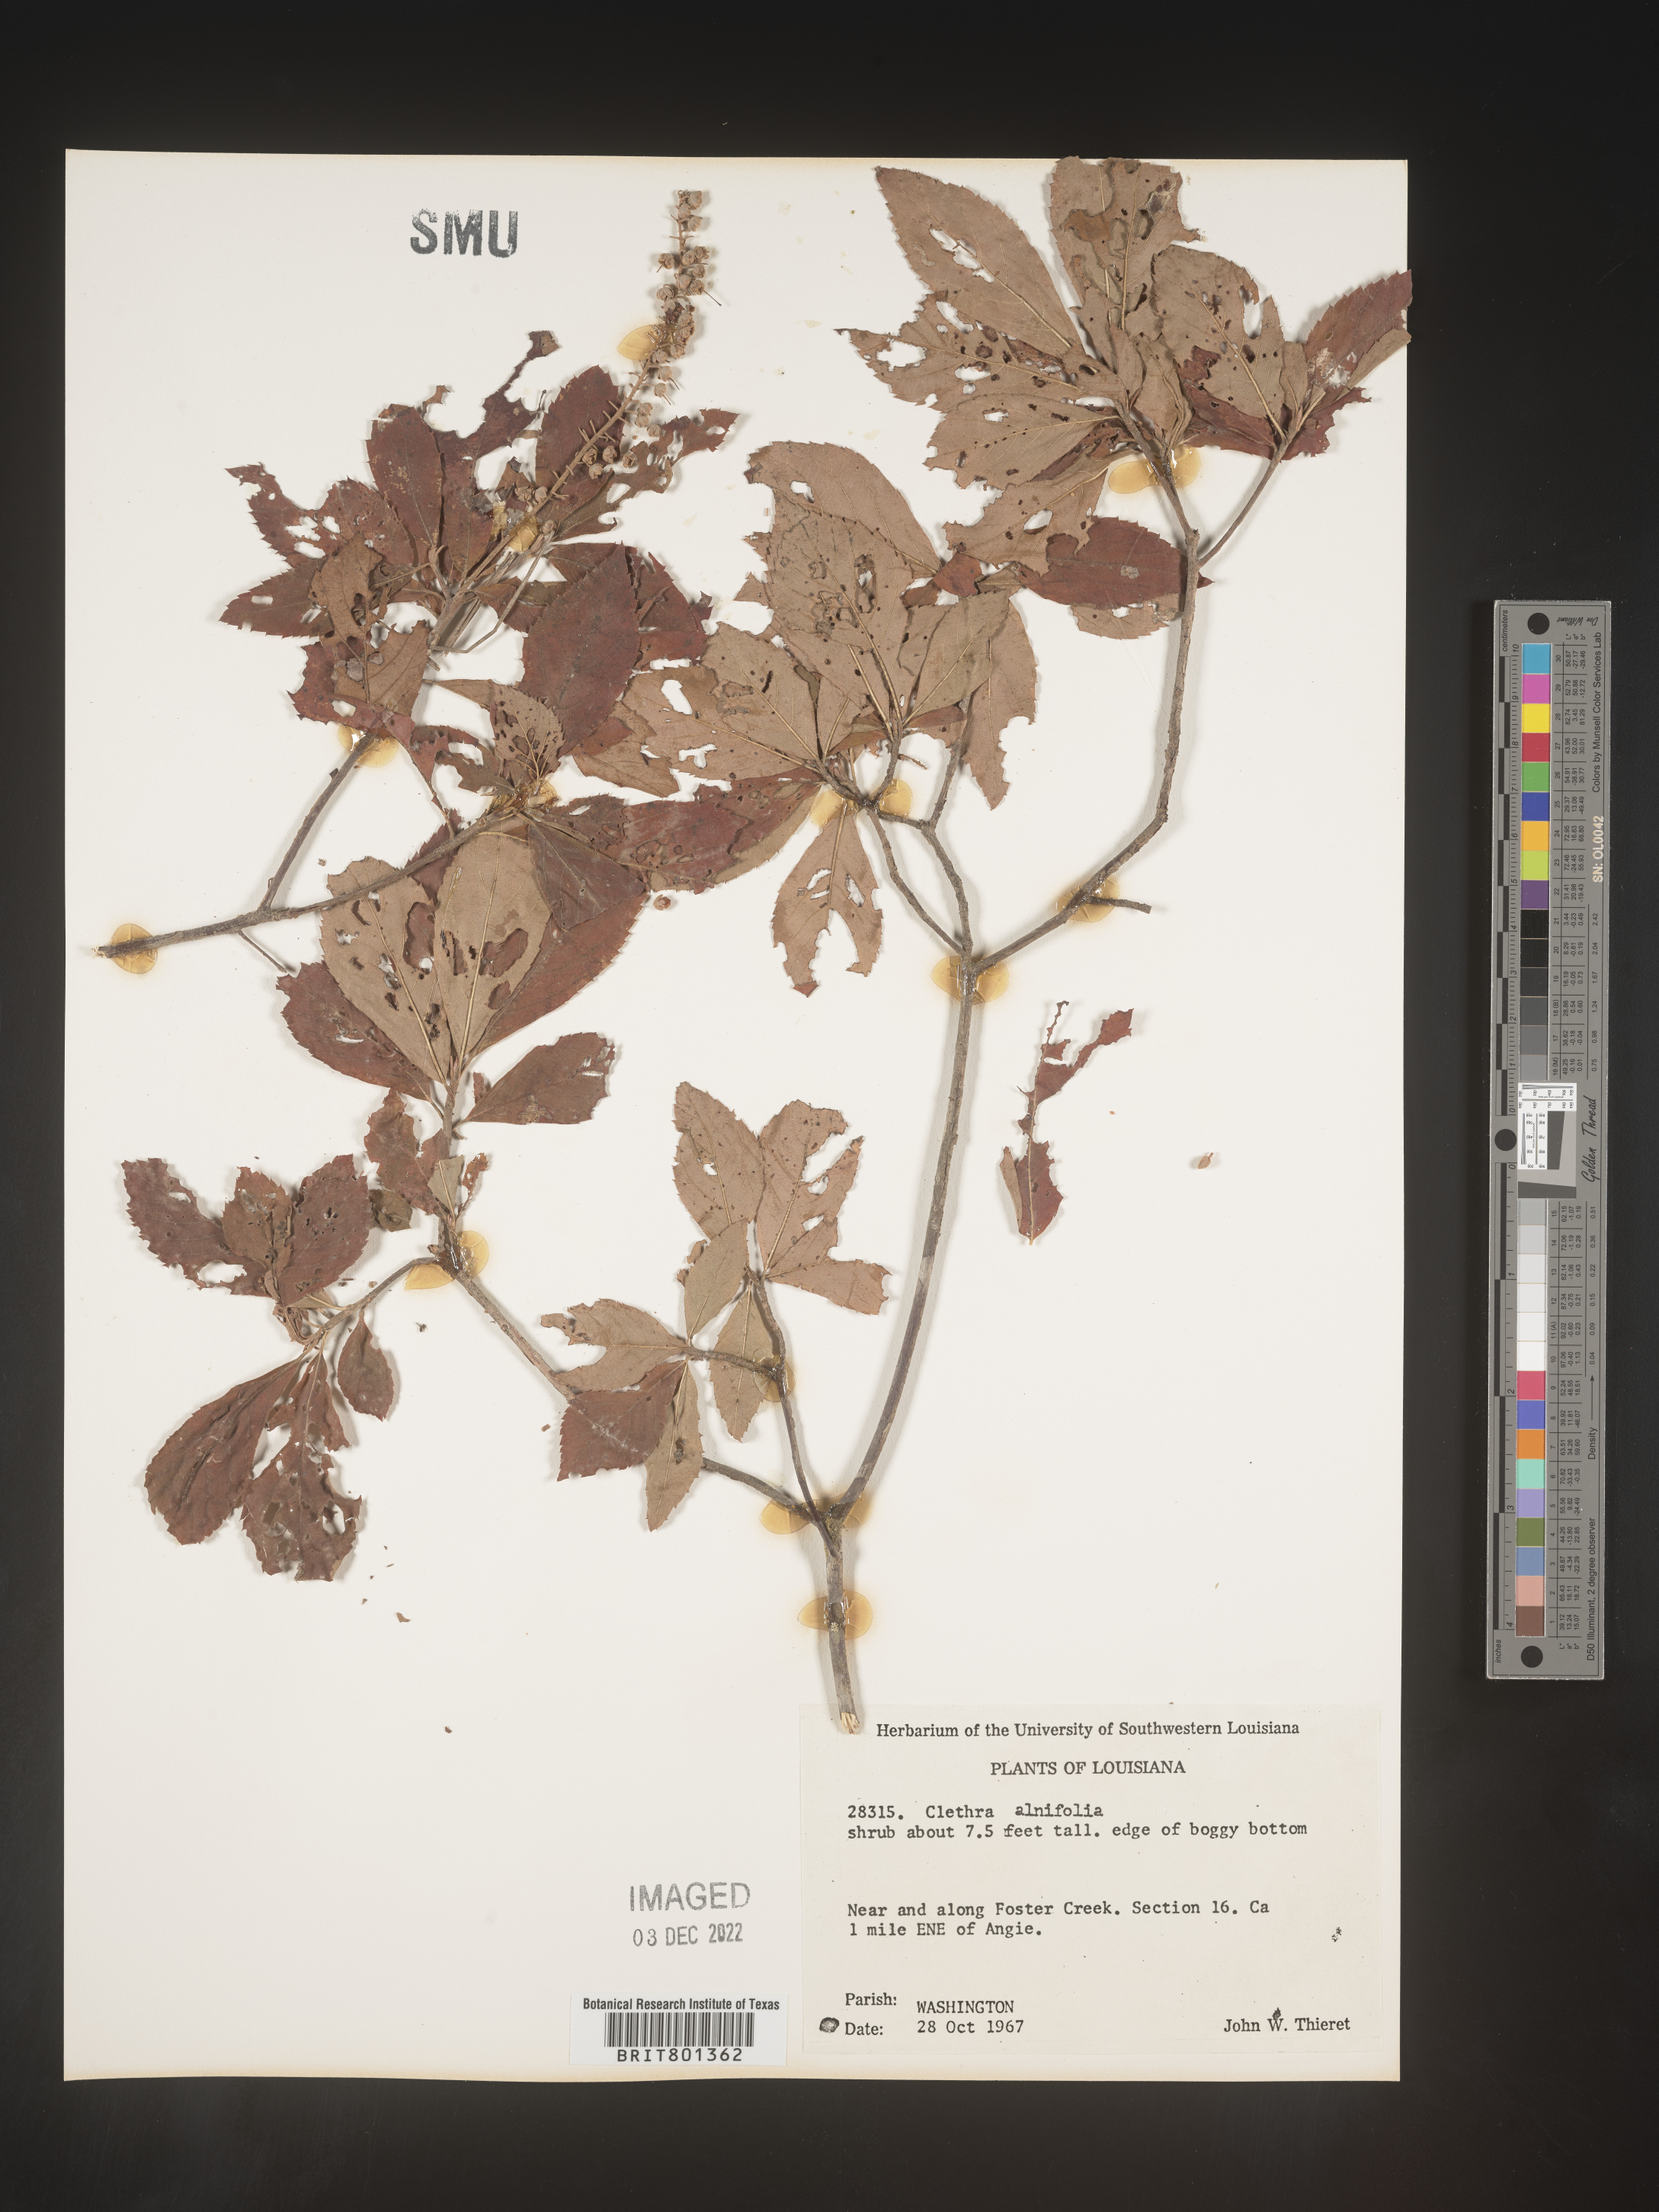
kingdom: Plantae
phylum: Tracheophyta
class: Magnoliopsida
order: Ericales
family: Clethraceae
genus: Clethra
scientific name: Clethra alnifolia
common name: Sweet pepperbush
